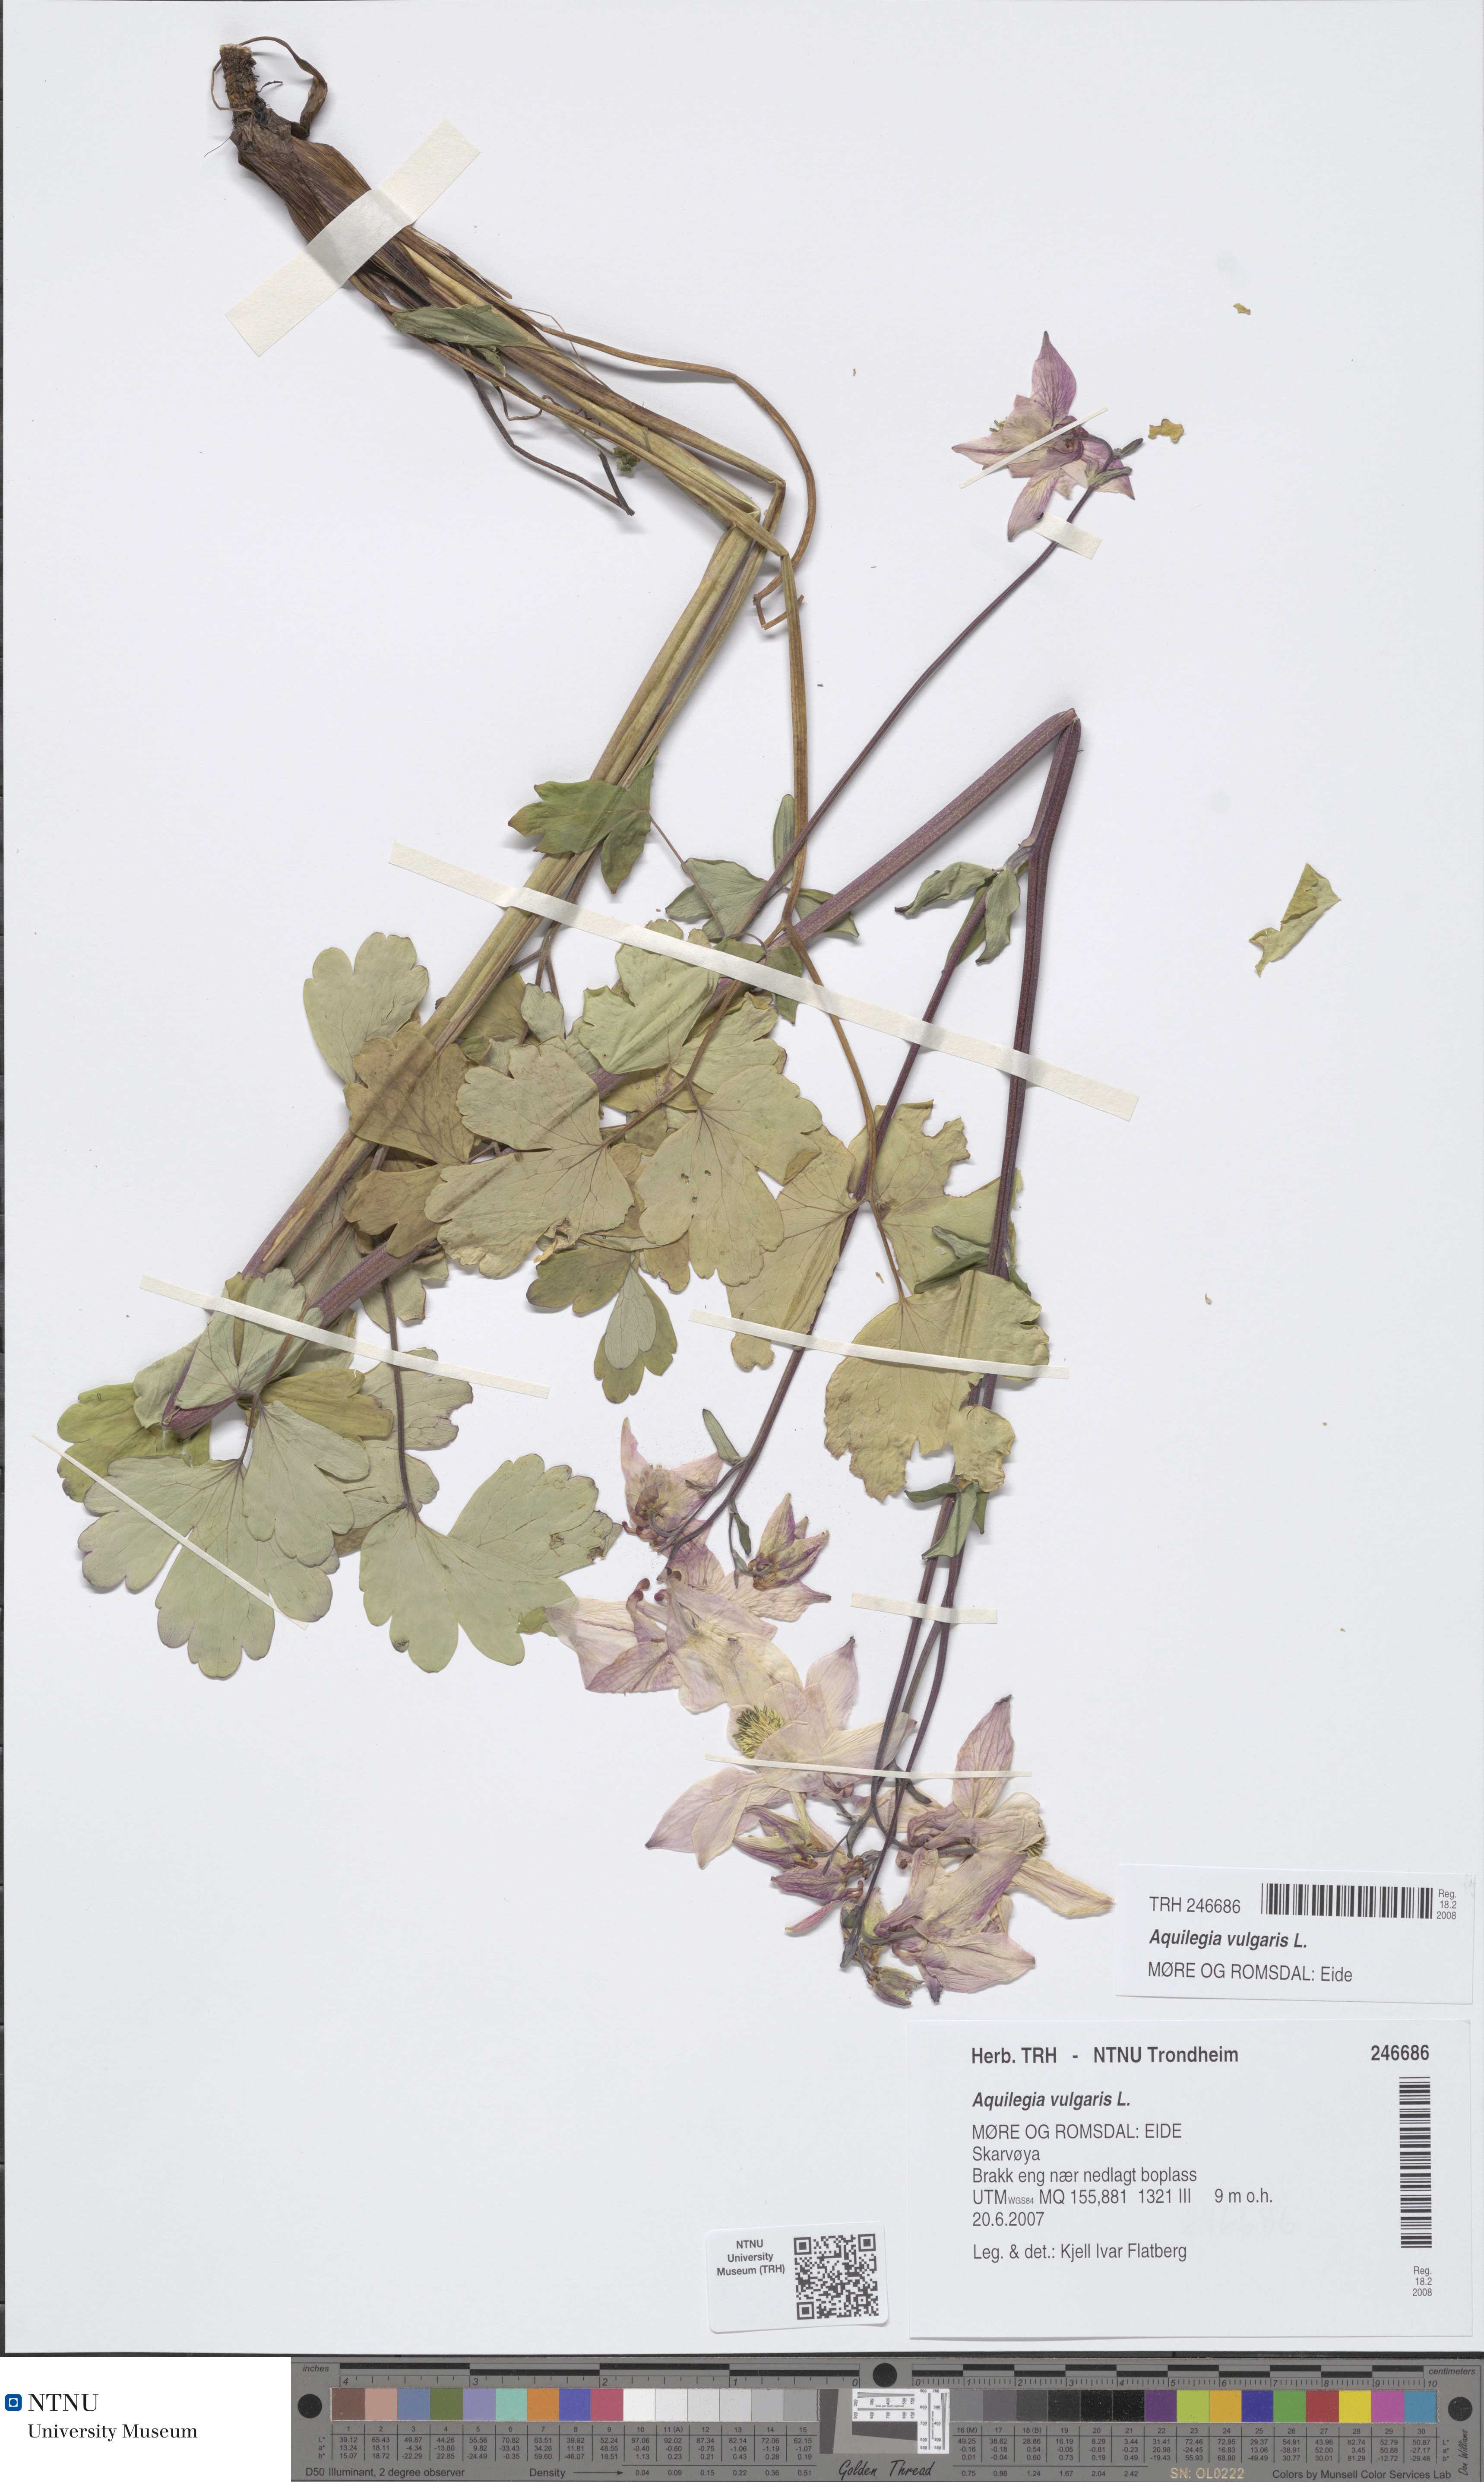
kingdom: Plantae
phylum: Tracheophyta
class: Magnoliopsida
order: Ranunculales
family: Ranunculaceae
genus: Aquilegia
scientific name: Aquilegia vulgaris
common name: Columbine
